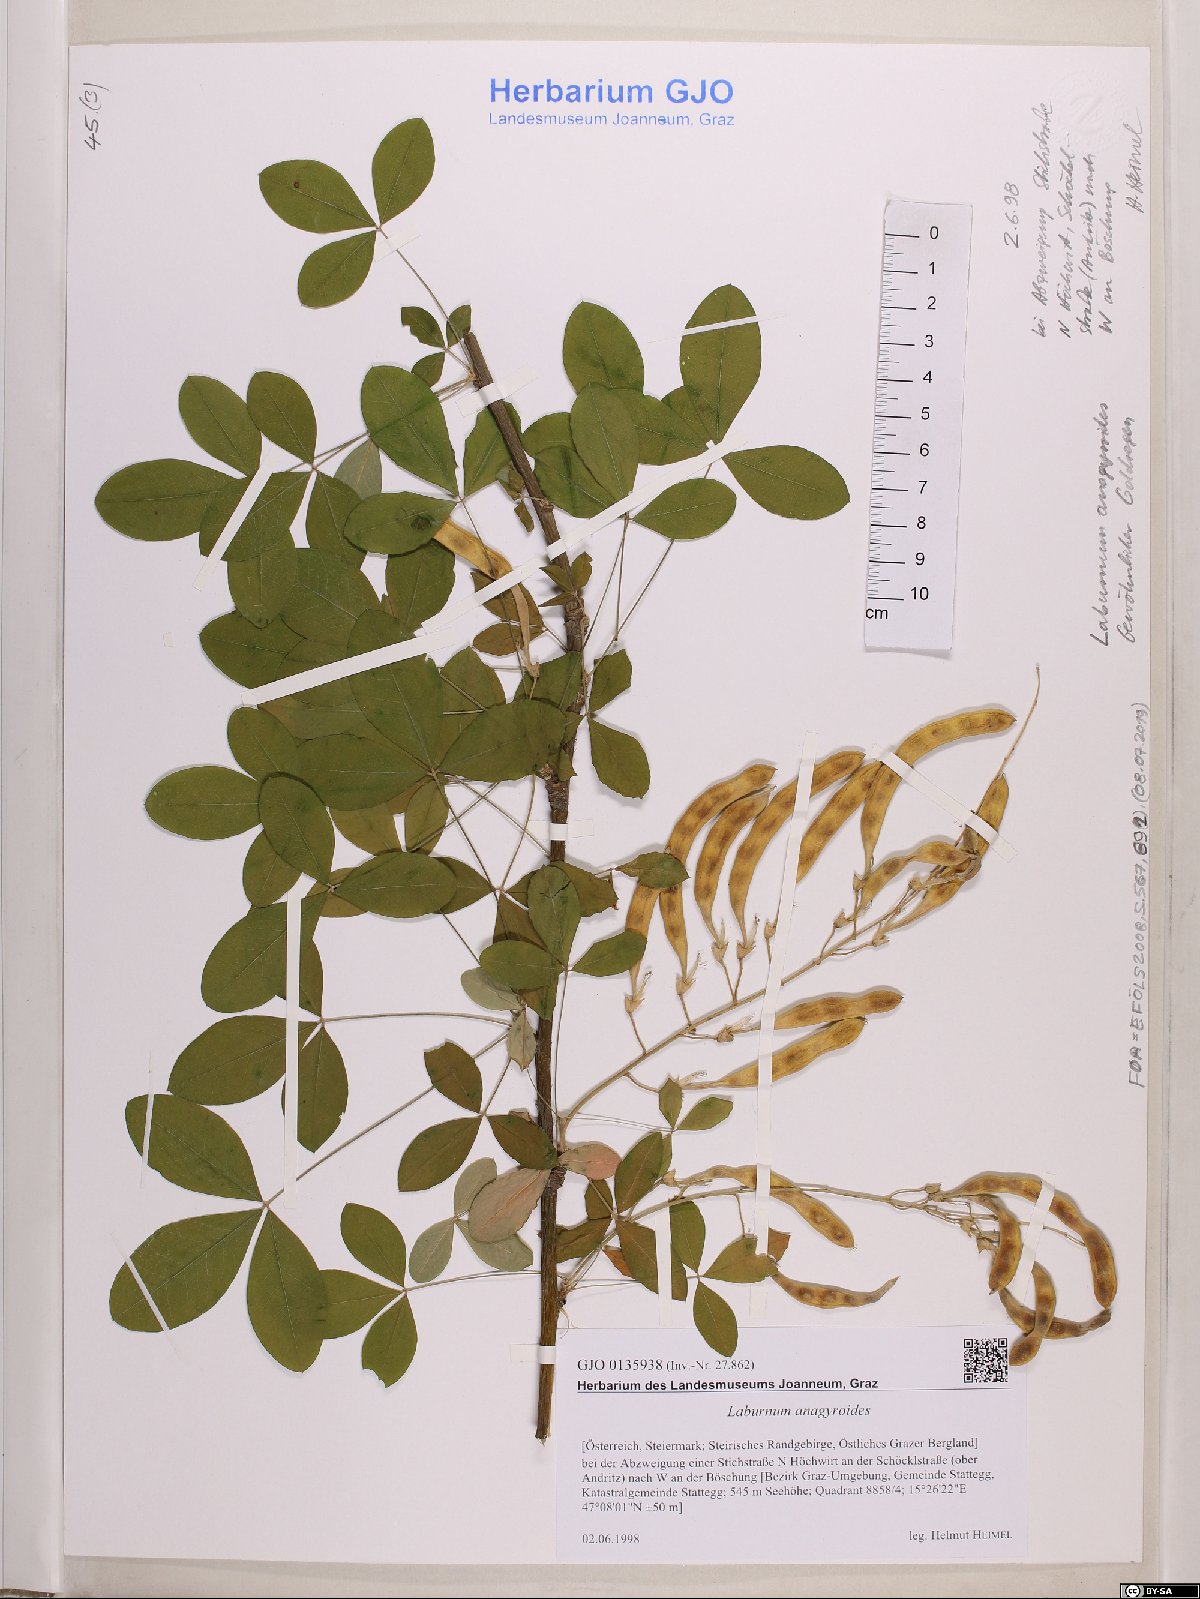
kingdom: Plantae
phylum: Tracheophyta
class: Magnoliopsida
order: Fabales
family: Fabaceae
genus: Laburnum
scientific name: Laburnum anagyroides
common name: Laburnum
